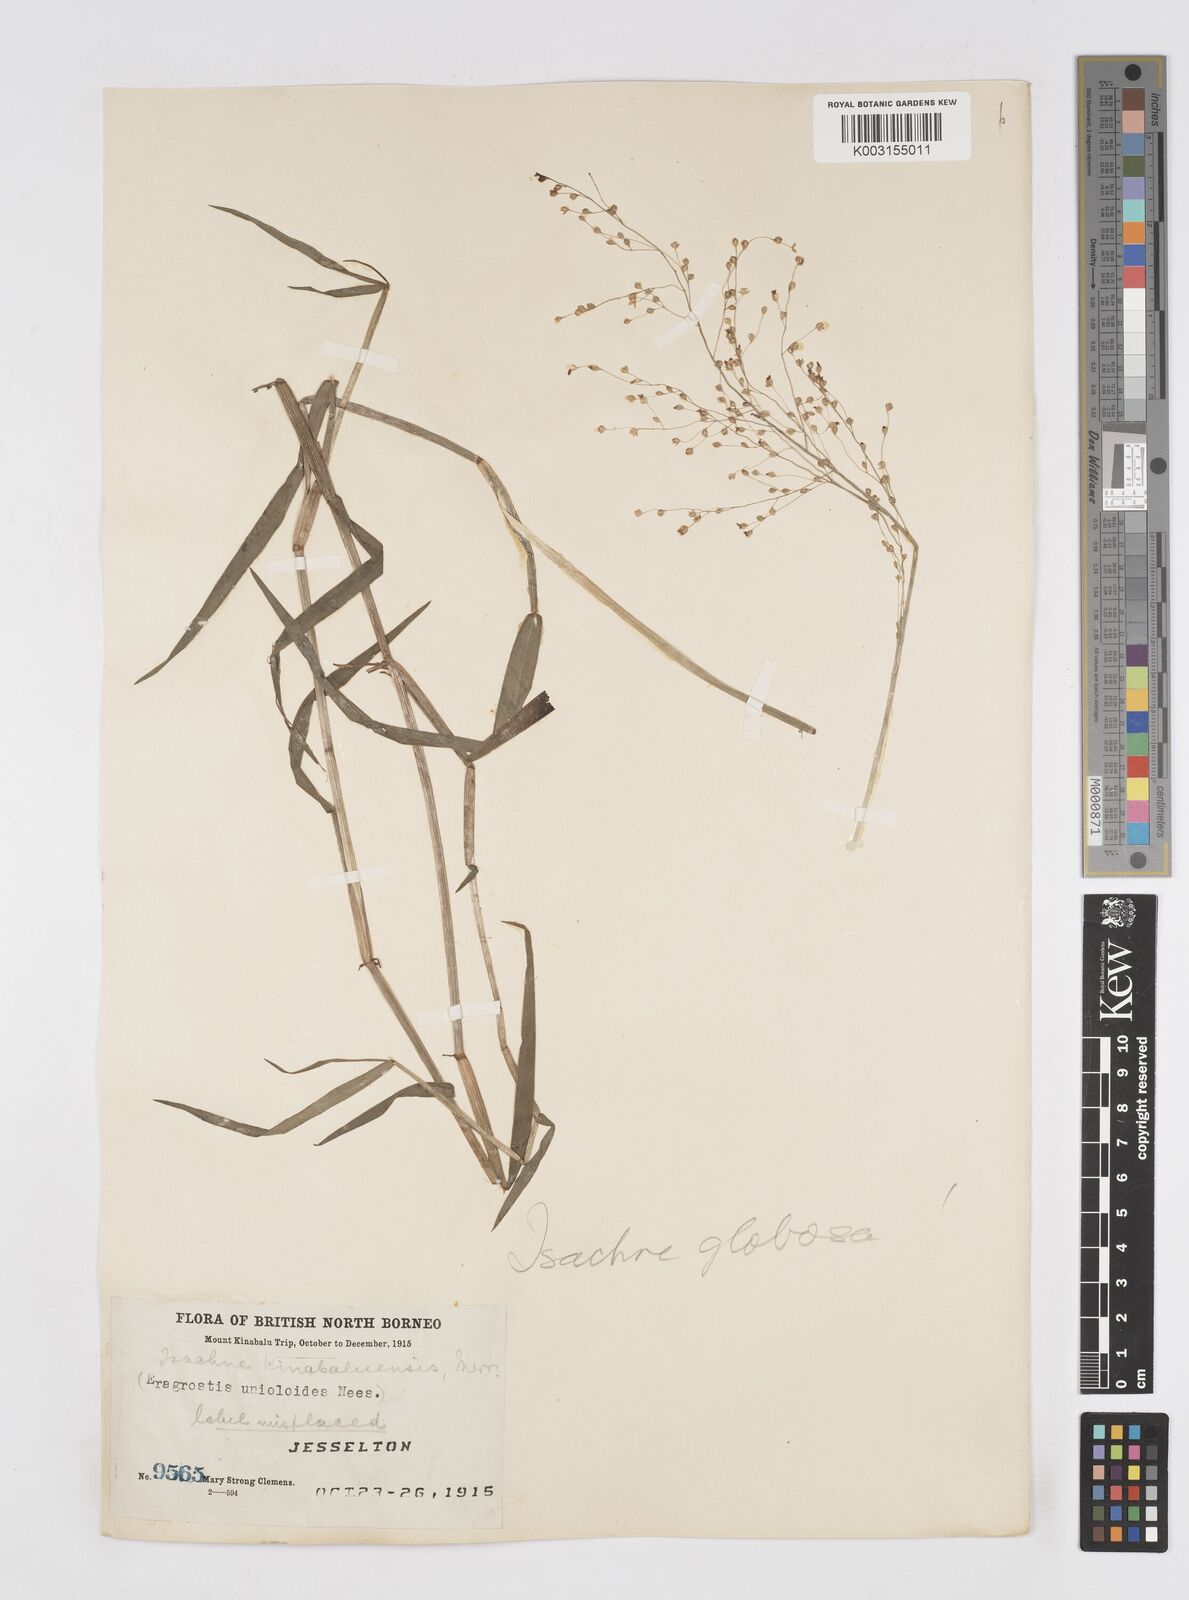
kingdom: Plantae
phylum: Tracheophyta
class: Liliopsida
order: Poales
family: Poaceae
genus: Isachne
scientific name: Isachne kinabaluensis
